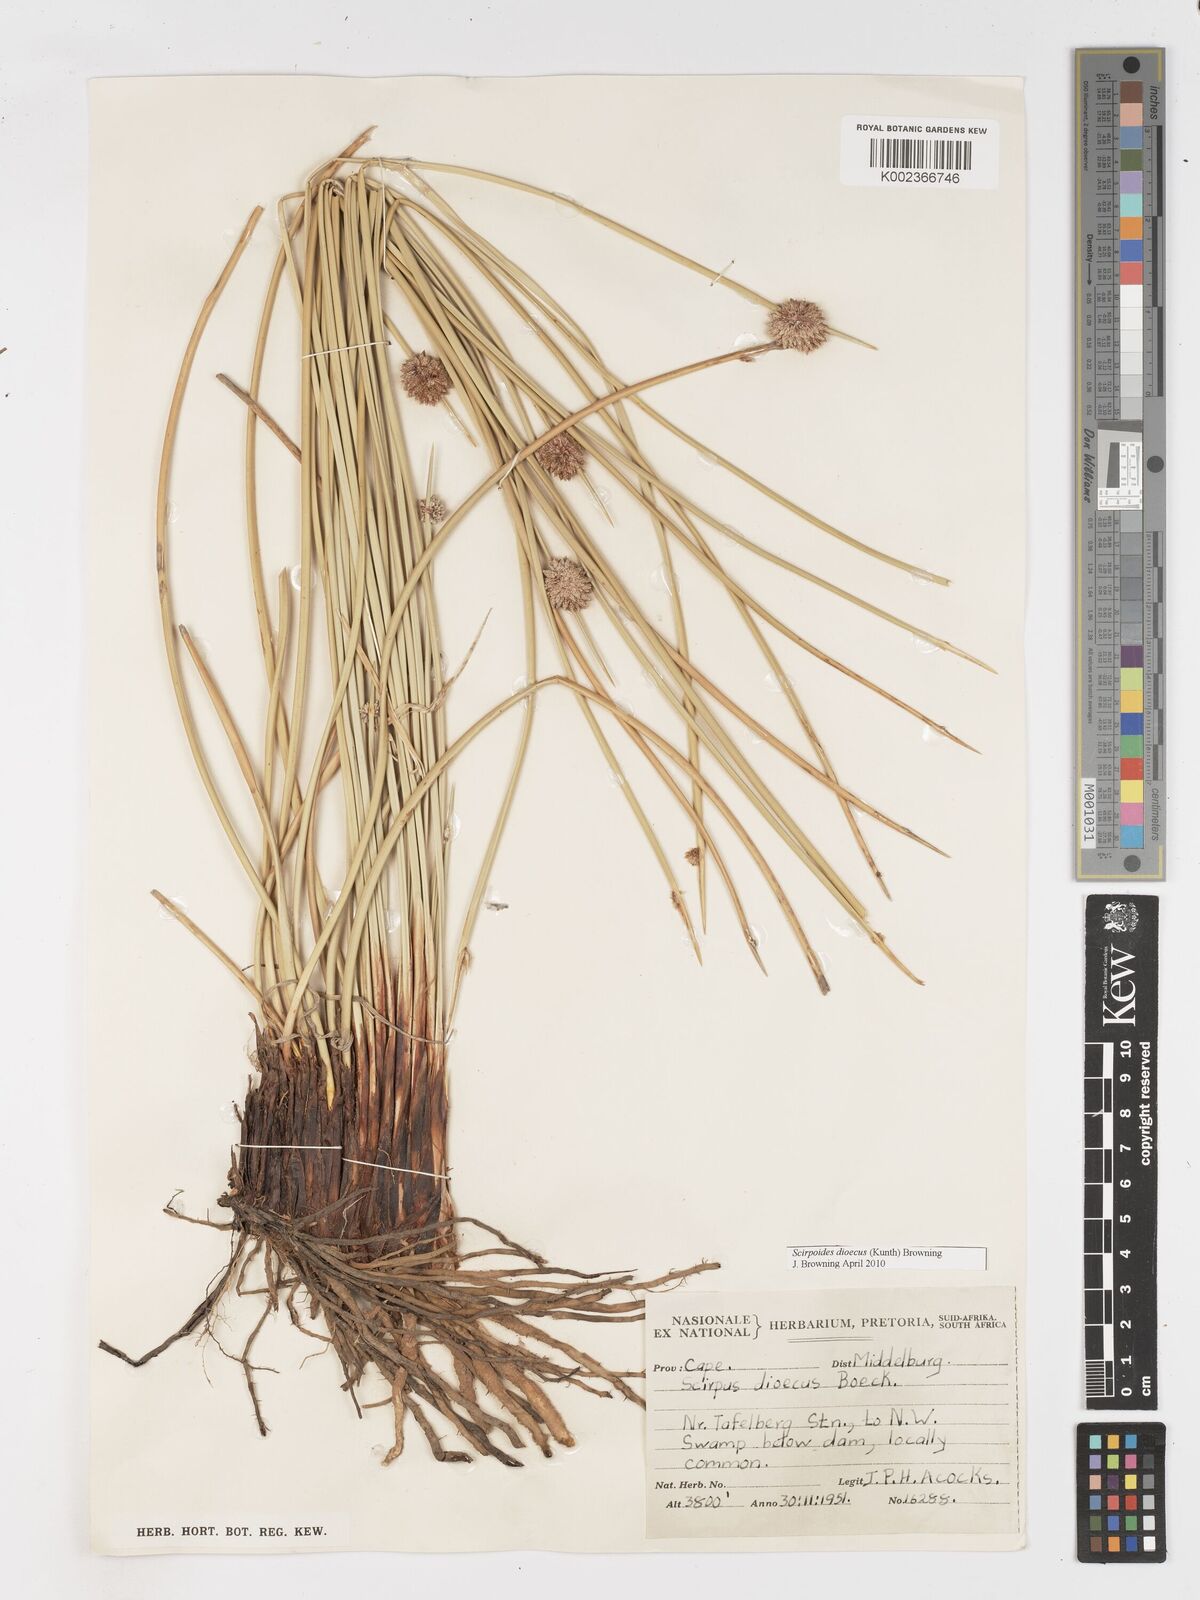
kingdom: Plantae
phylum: Tracheophyta
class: Liliopsida
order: Poales
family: Cyperaceae
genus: Afroscirpoides
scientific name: Afroscirpoides dioeca
